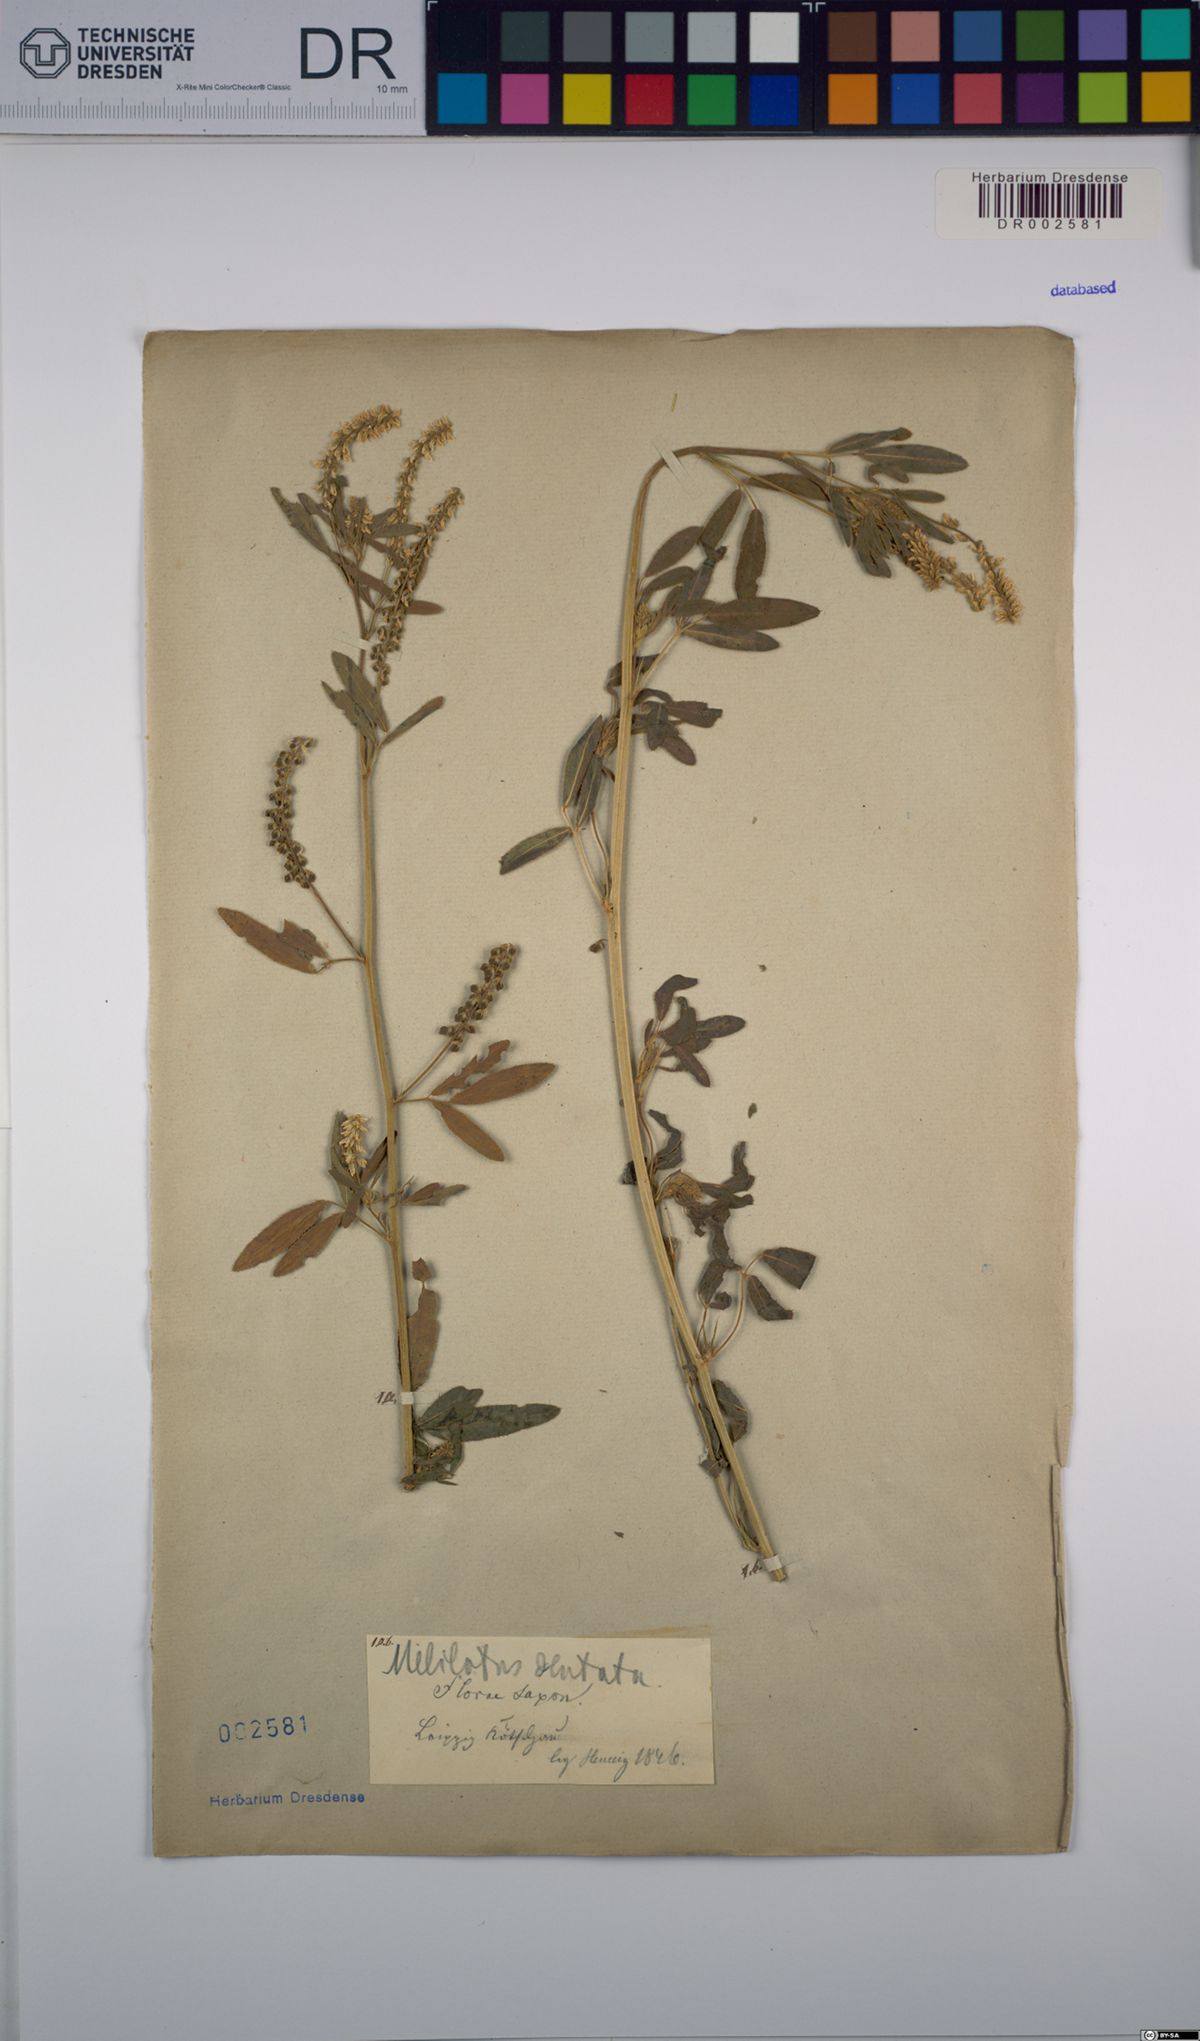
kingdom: Plantae
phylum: Tracheophyta
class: Magnoliopsida
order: Fabales
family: Fabaceae
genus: Melilotus
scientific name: Melilotus dentatus
